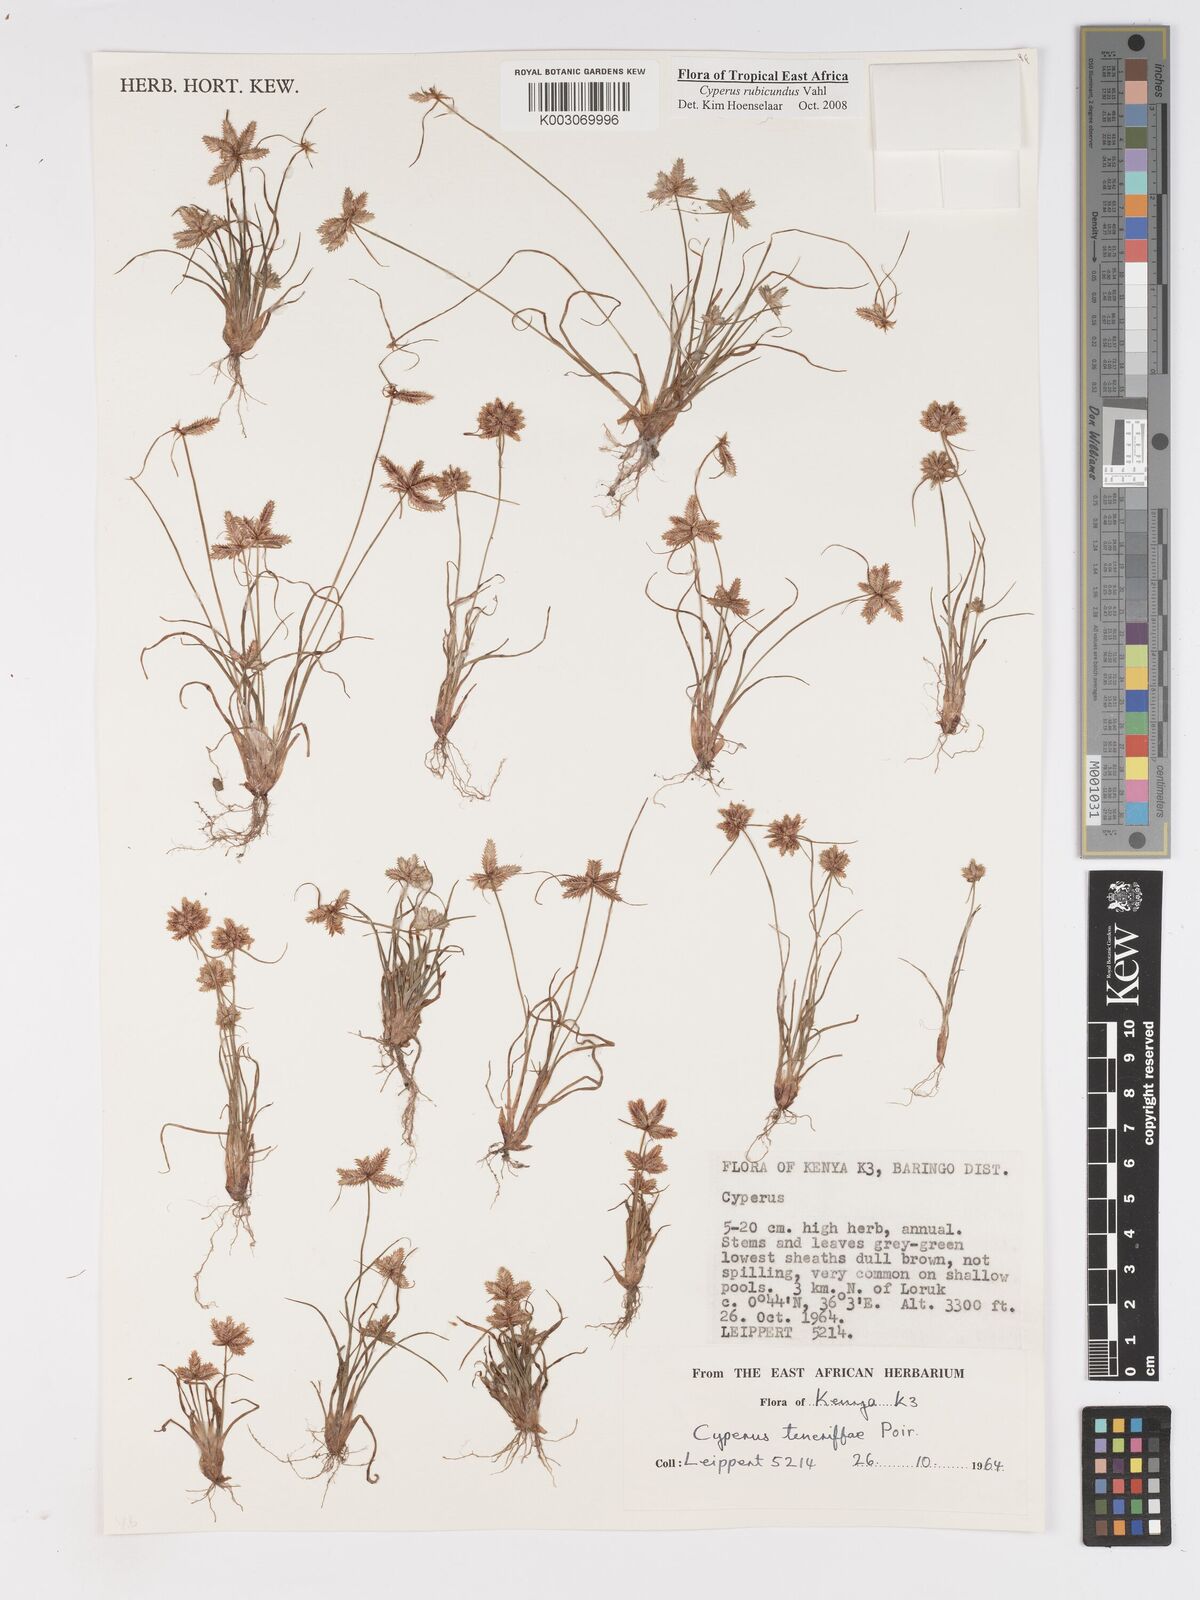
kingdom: Plantae
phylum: Tracheophyta
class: Liliopsida
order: Poales
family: Cyperaceae
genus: Cyperus
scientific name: Cyperus rubicundus
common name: Coco-grass
